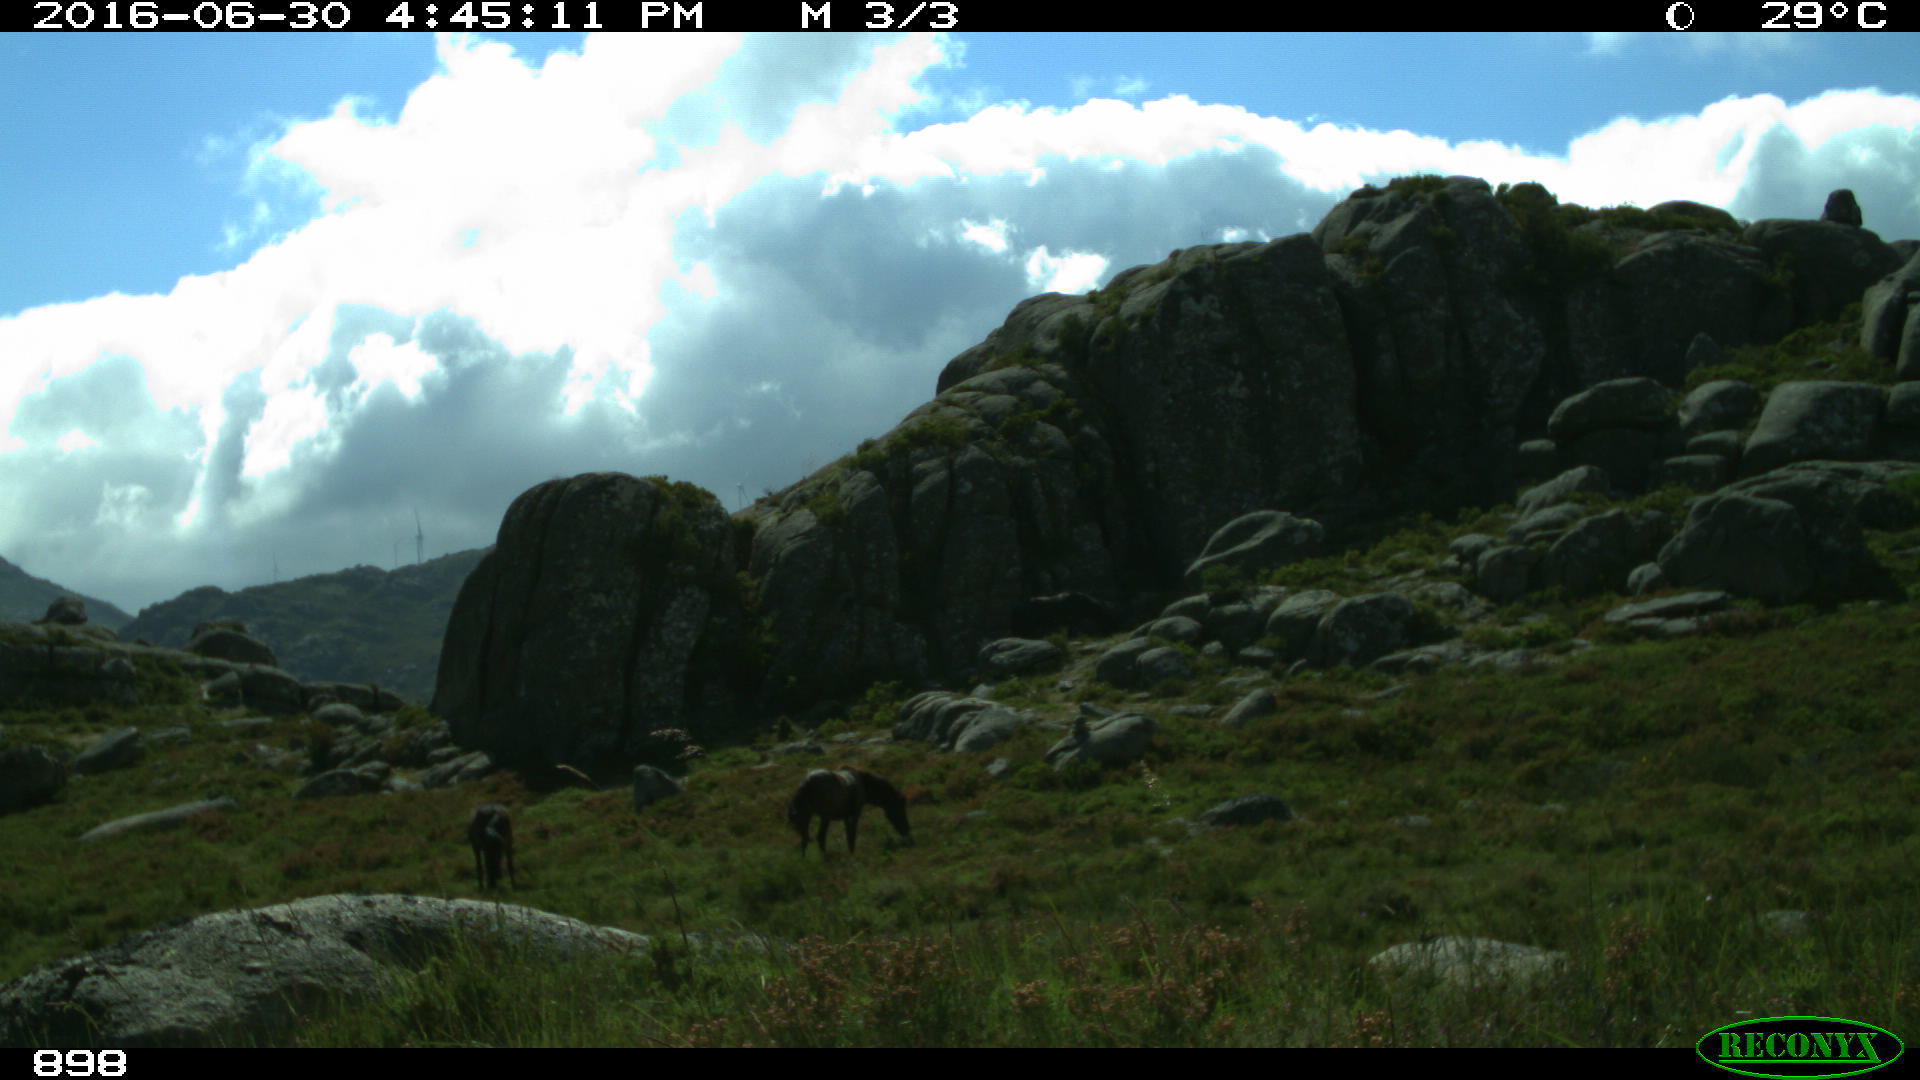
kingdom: Animalia
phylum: Chordata
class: Mammalia
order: Perissodactyla
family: Equidae
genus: Equus
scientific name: Equus caballus
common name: Horse
